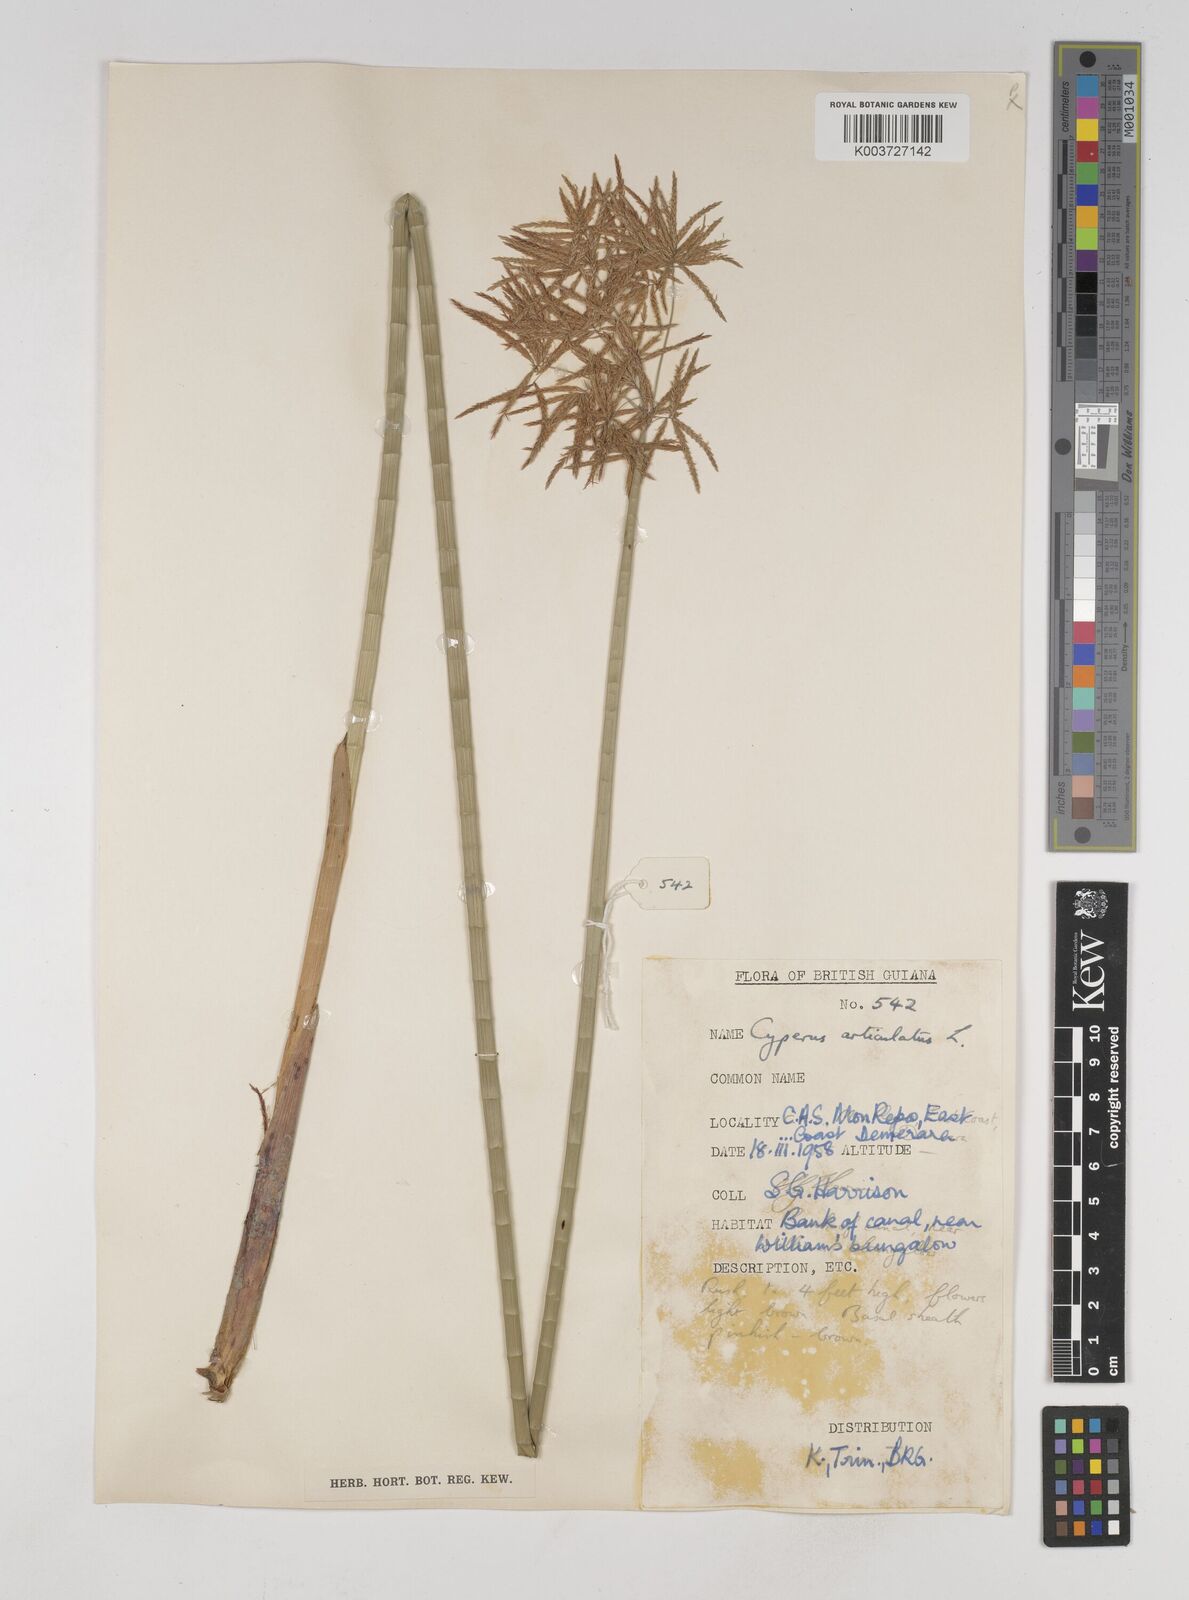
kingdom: Plantae
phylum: Tracheophyta
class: Liliopsida
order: Poales
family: Cyperaceae
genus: Cyperus
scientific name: Cyperus articulatus
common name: Jointed flatsedge
